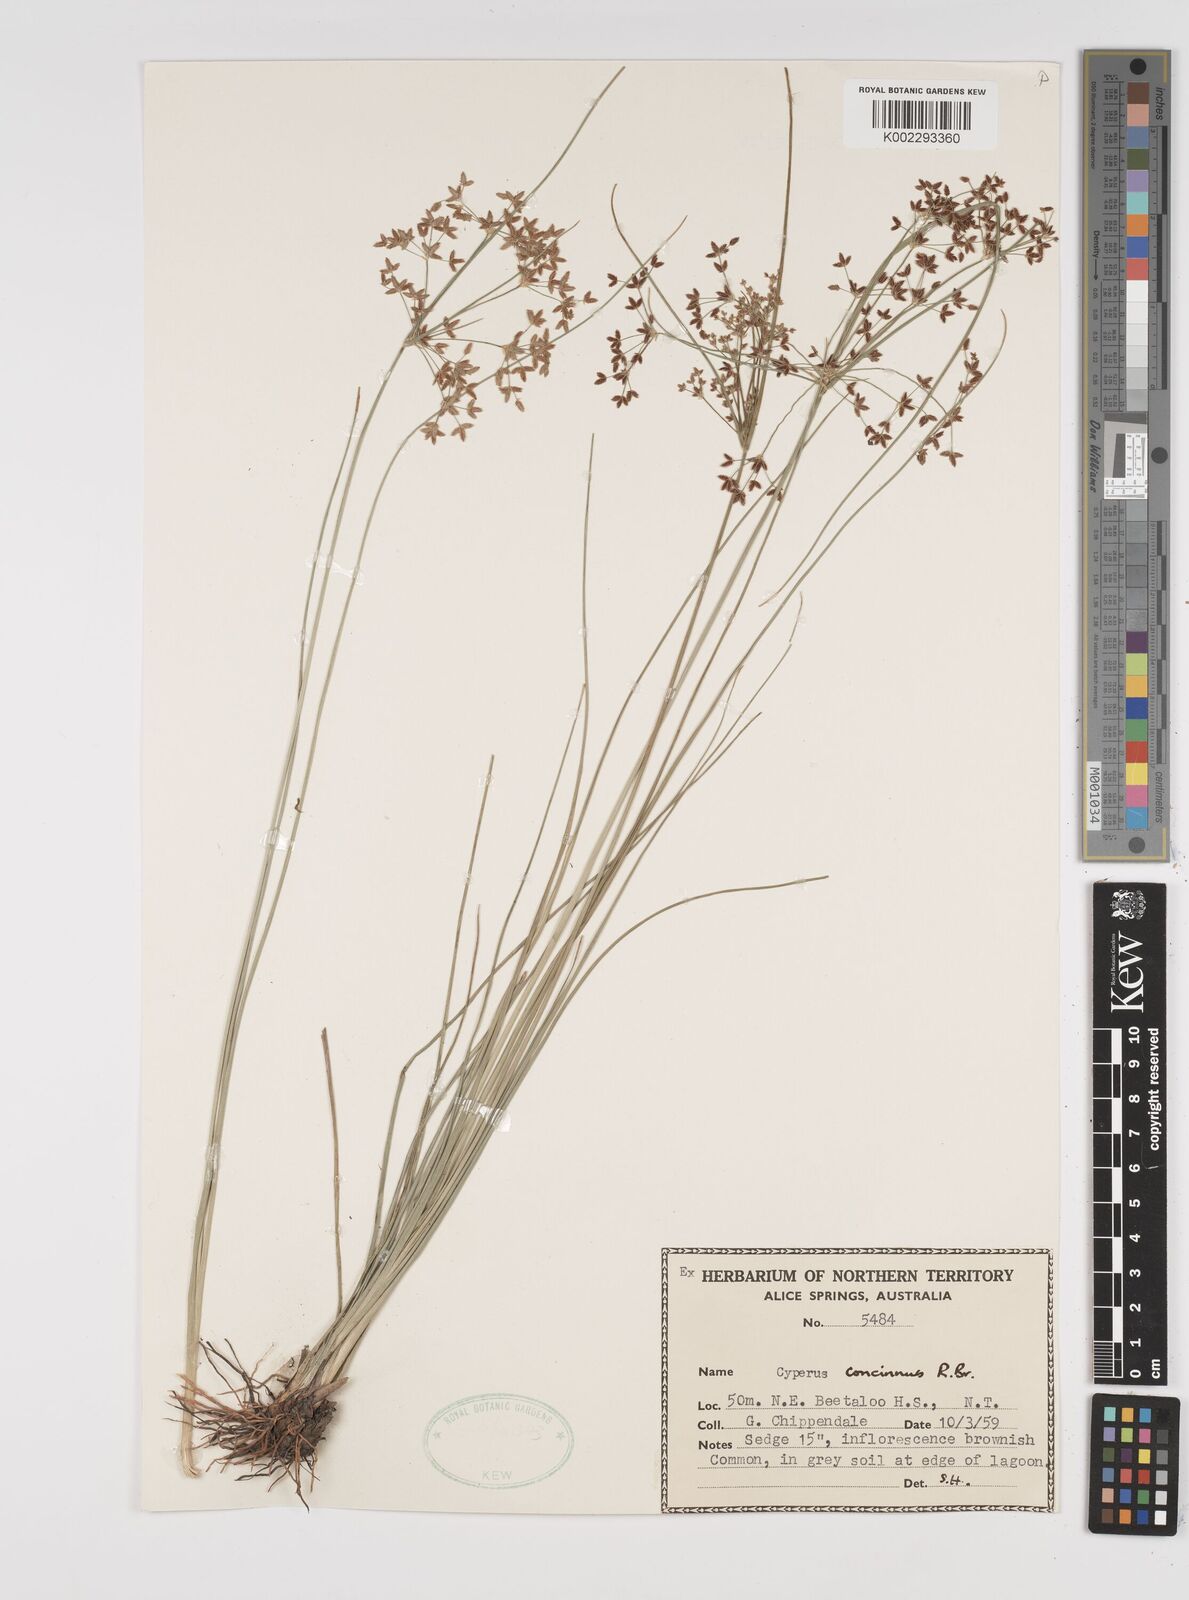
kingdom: Plantae
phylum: Tracheophyta
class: Liliopsida
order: Poales
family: Cyperaceae
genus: Cyperus
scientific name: Cyperus concinnus
